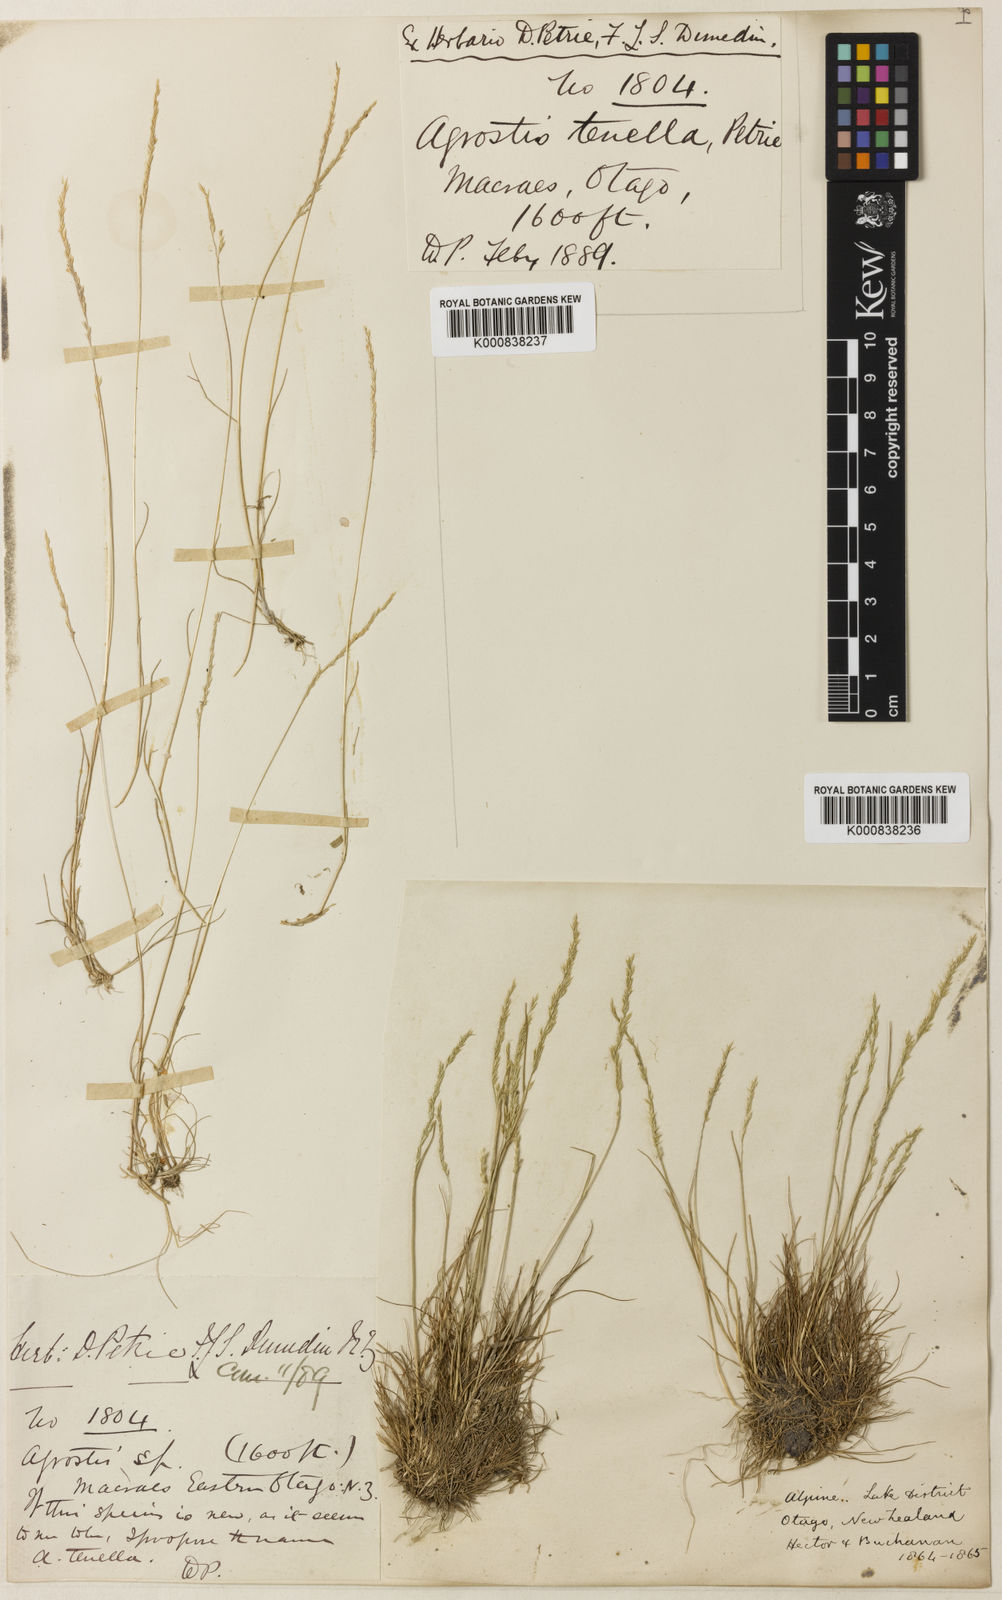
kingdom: Plantae
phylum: Tracheophyta
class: Liliopsida
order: Poales
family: Poaceae
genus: Agrostis
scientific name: Agrostis imbecilla
